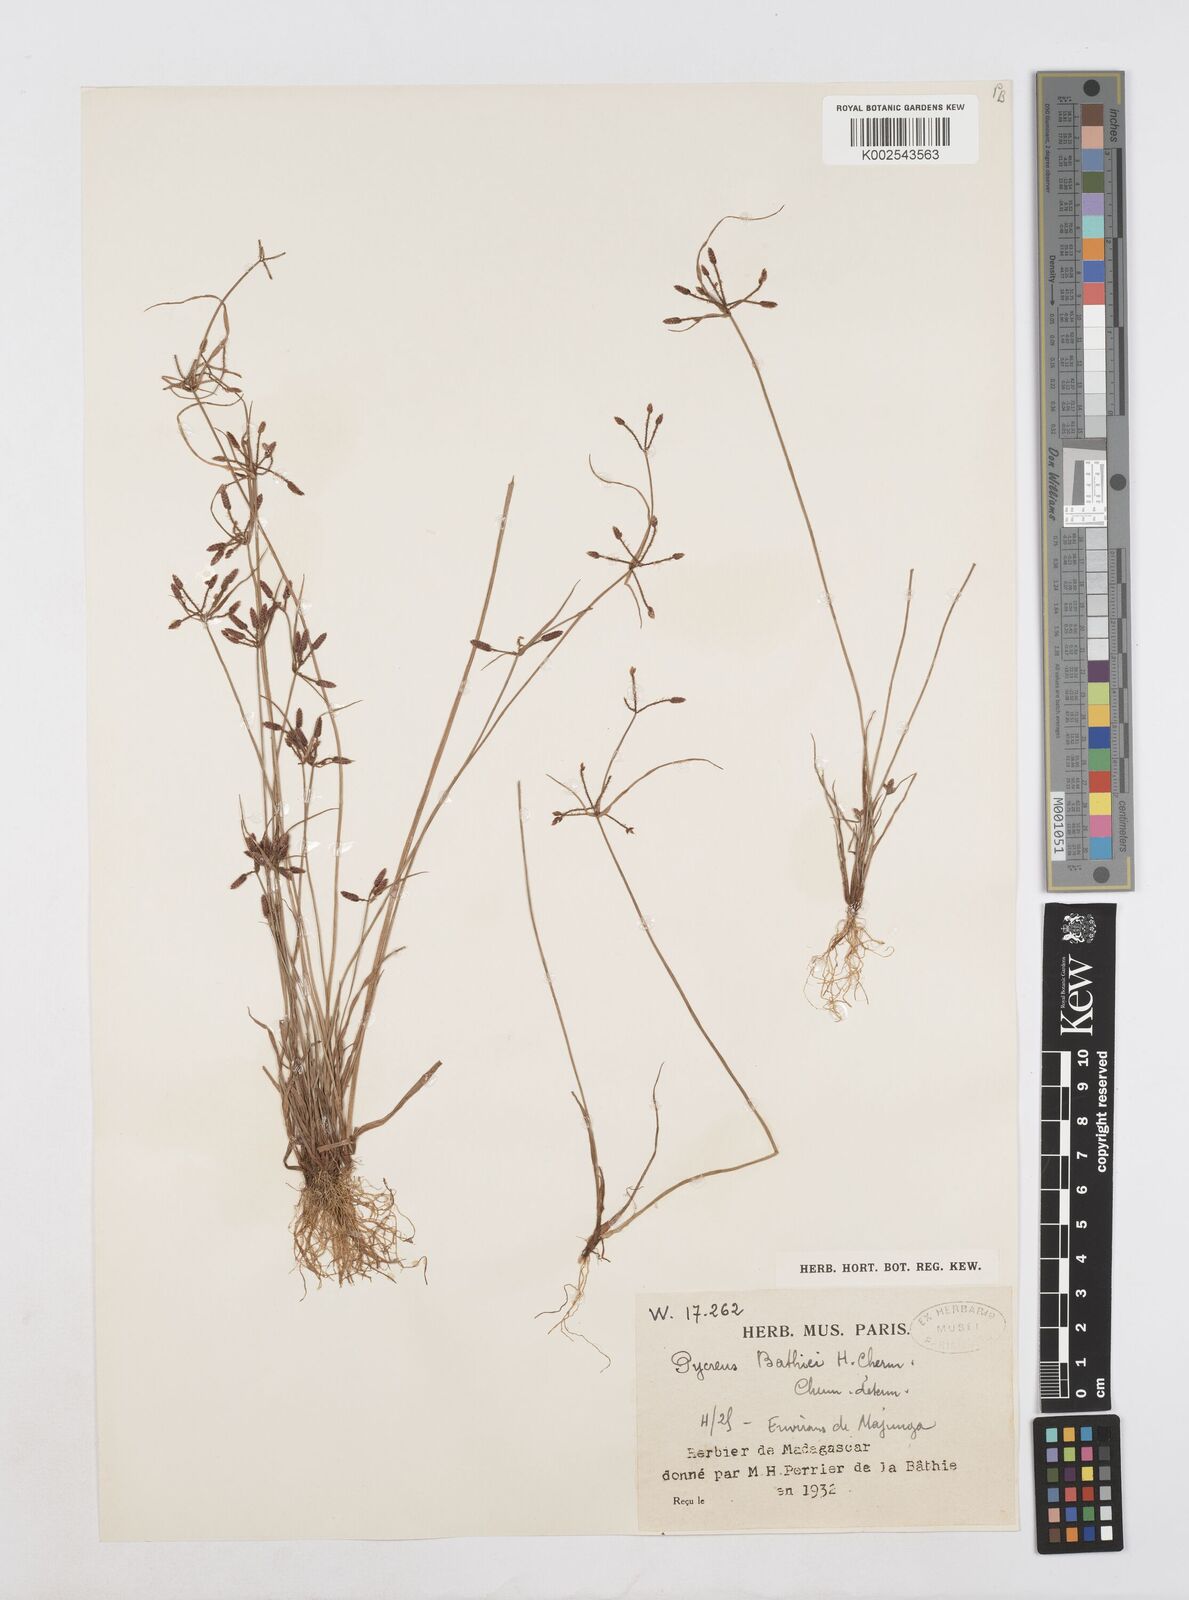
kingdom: Plantae
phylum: Tracheophyta
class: Liliopsida
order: Poales
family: Cyperaceae
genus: Cyperus
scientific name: Cyperus flavescens
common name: Yellow galingale
